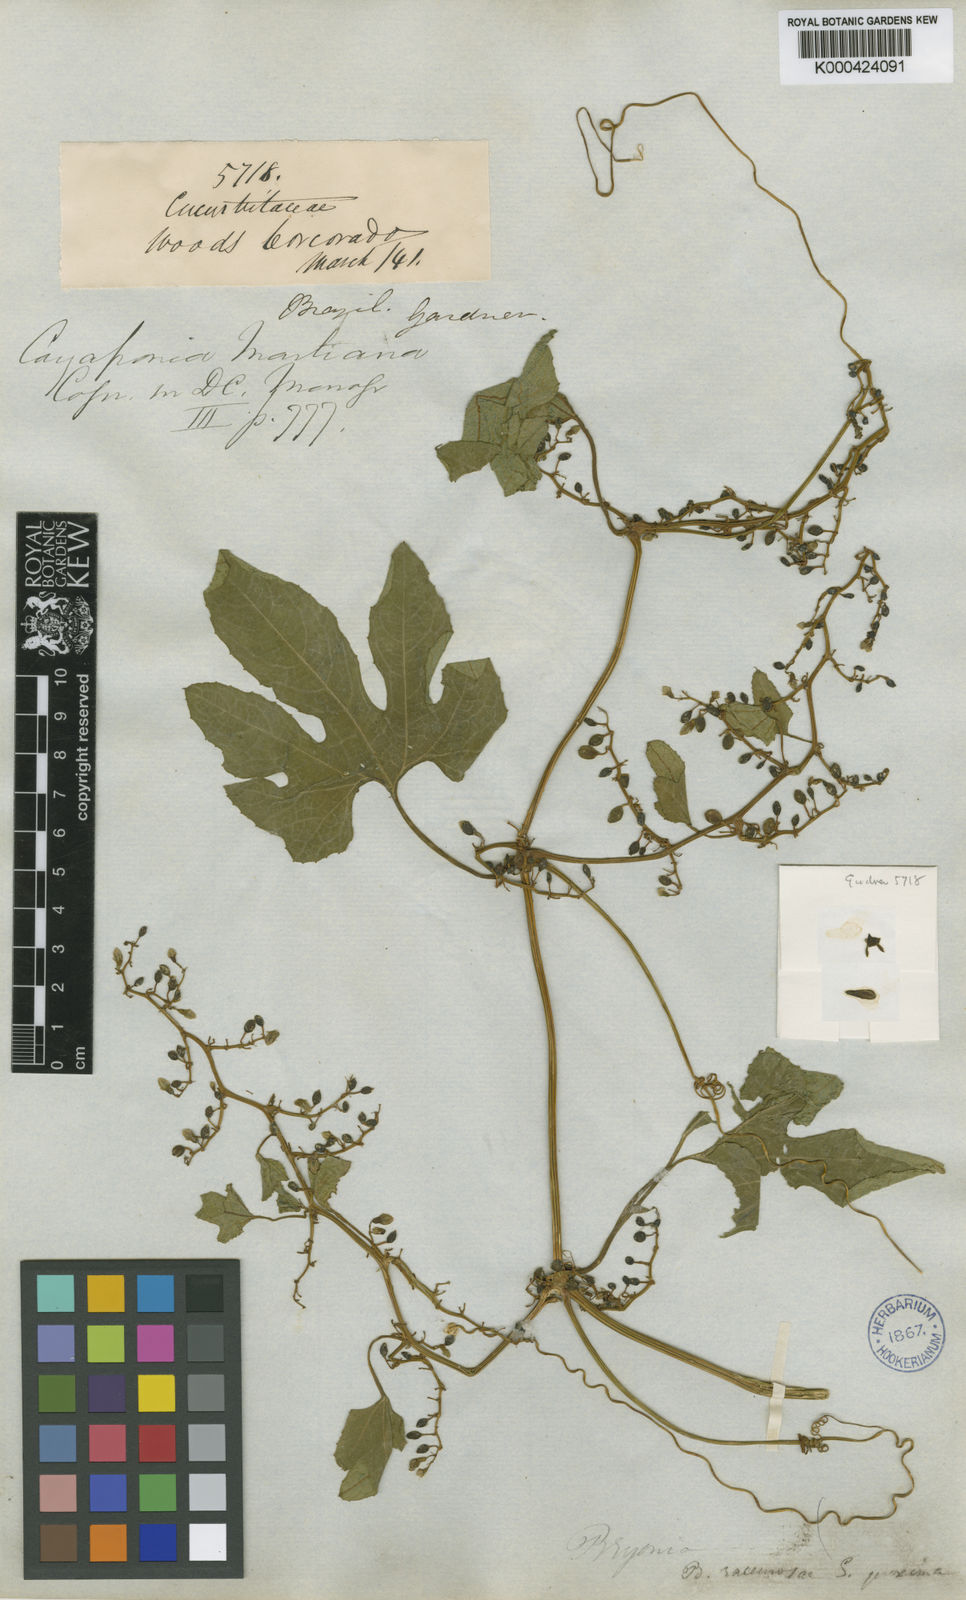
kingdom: Plantae
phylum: Tracheophyta
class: Magnoliopsida
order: Cucurbitales
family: Cucurbitaceae
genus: Cayaponia
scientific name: Cayaponia martiana
